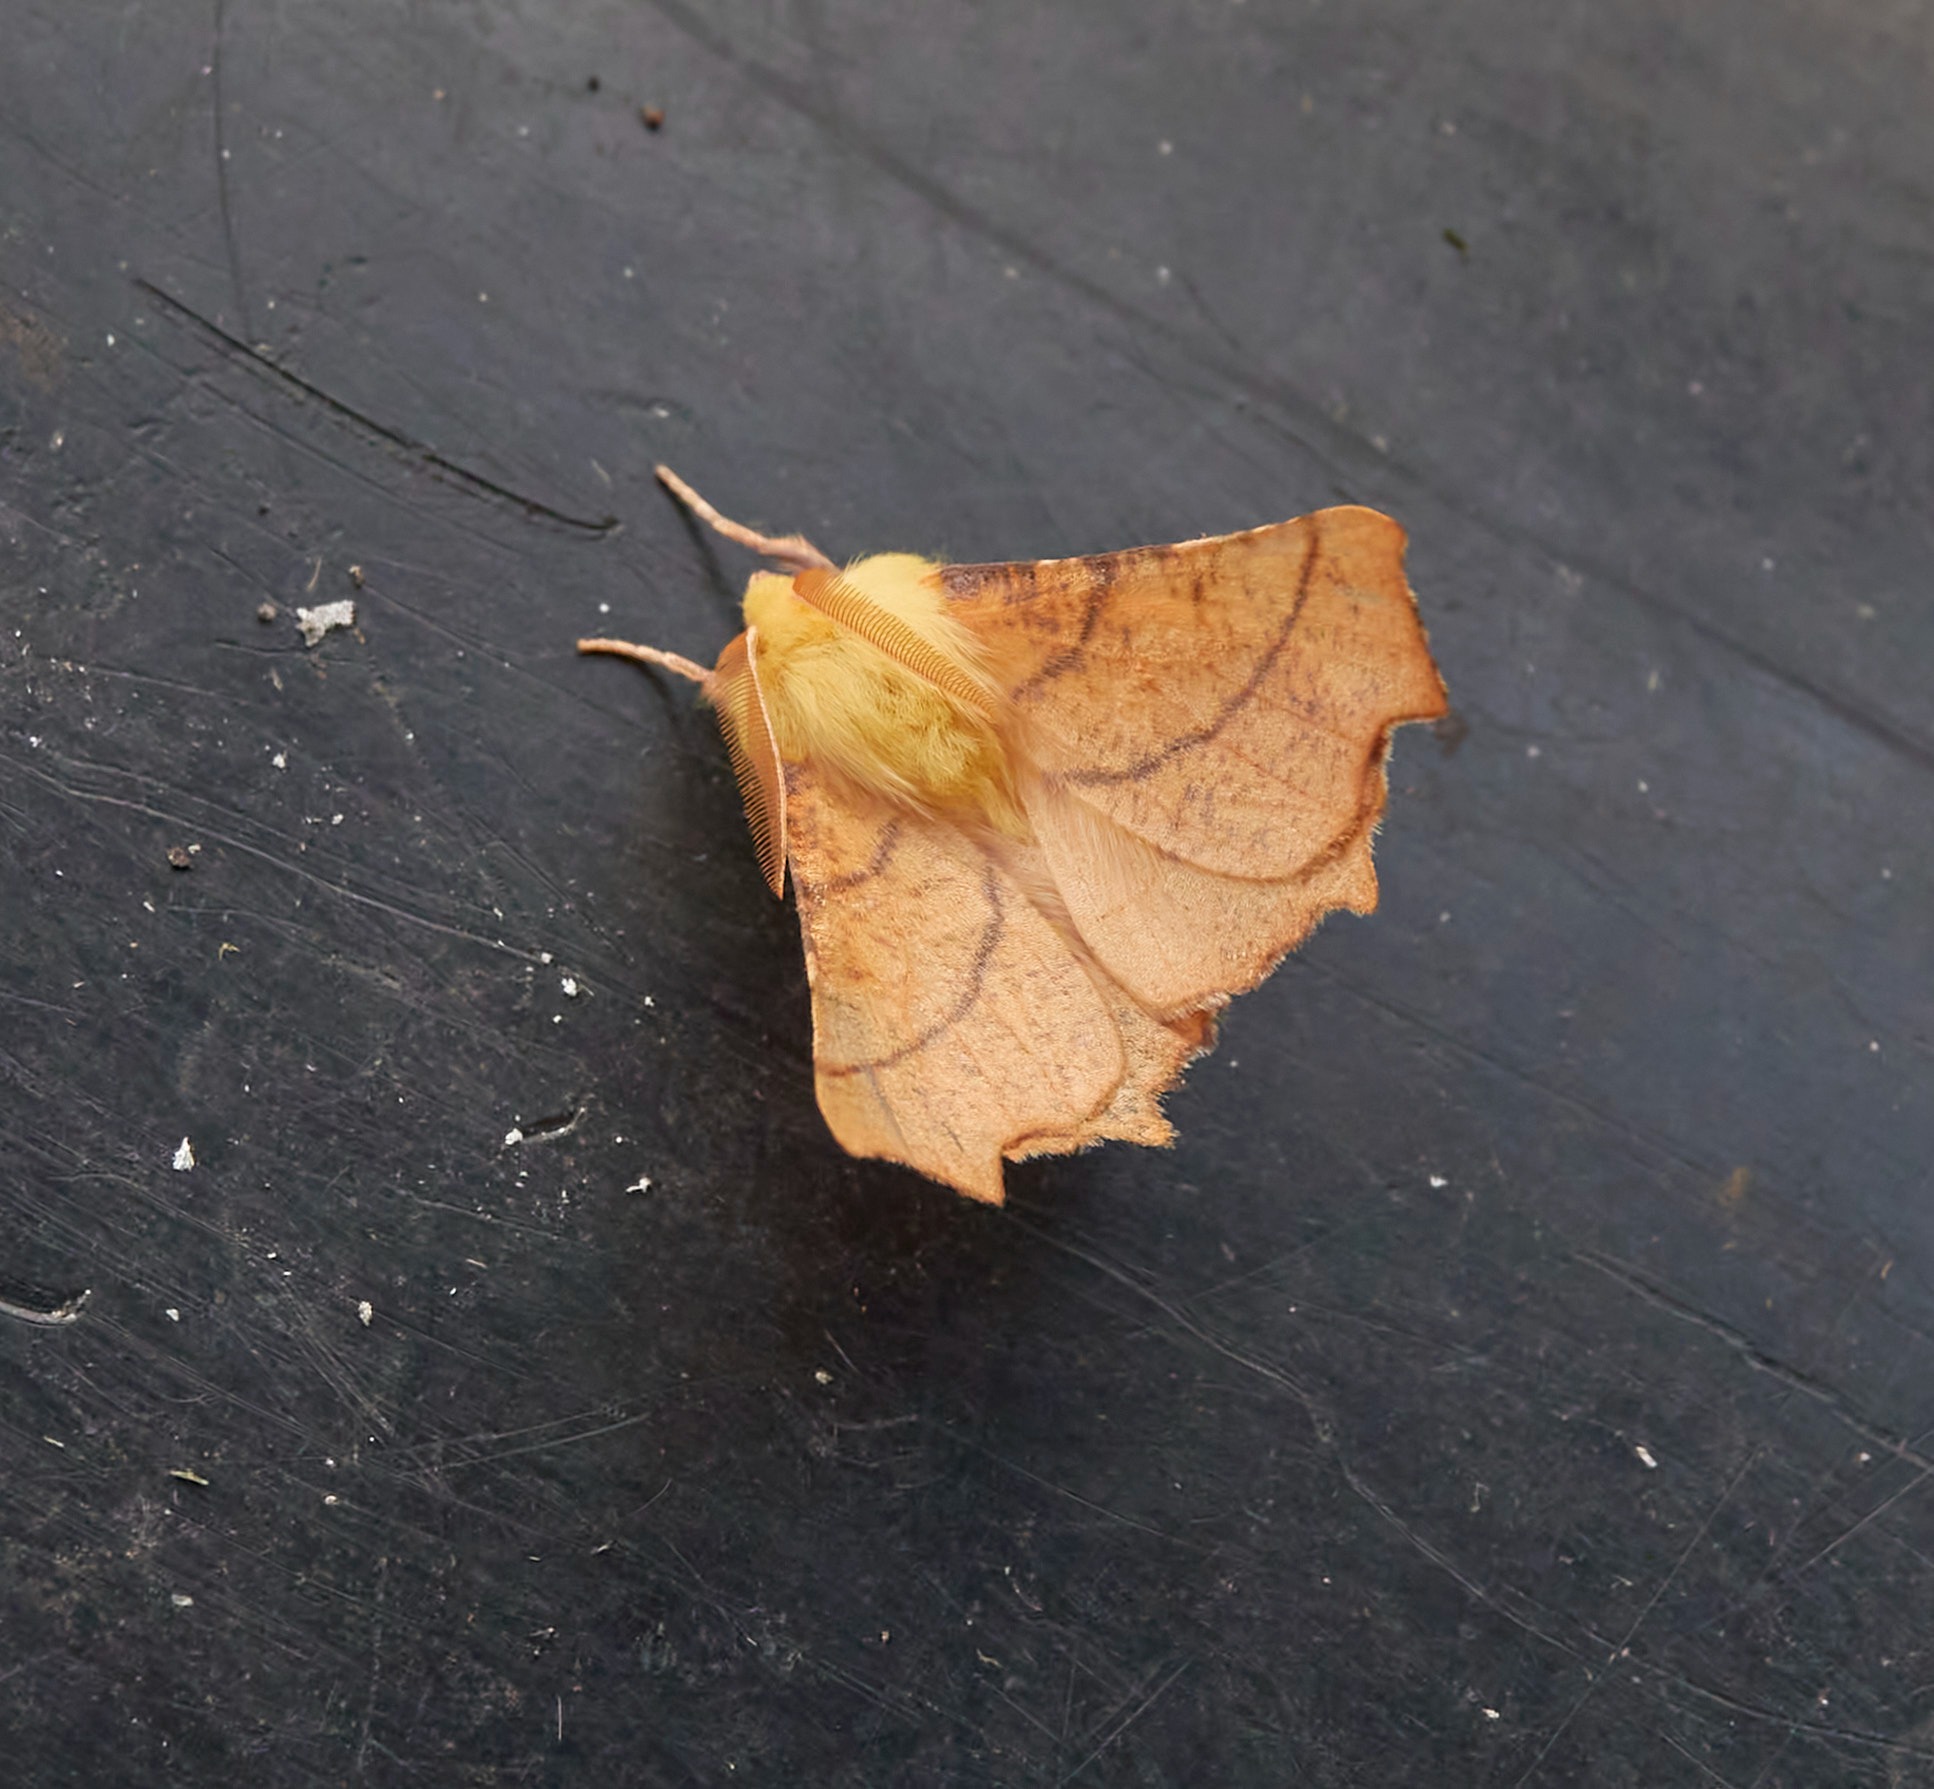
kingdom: Animalia
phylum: Arthropoda
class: Insecta
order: Lepidoptera
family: Geometridae
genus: Ennomos
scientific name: Ennomos alniaria
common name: Elle-tandmåler
